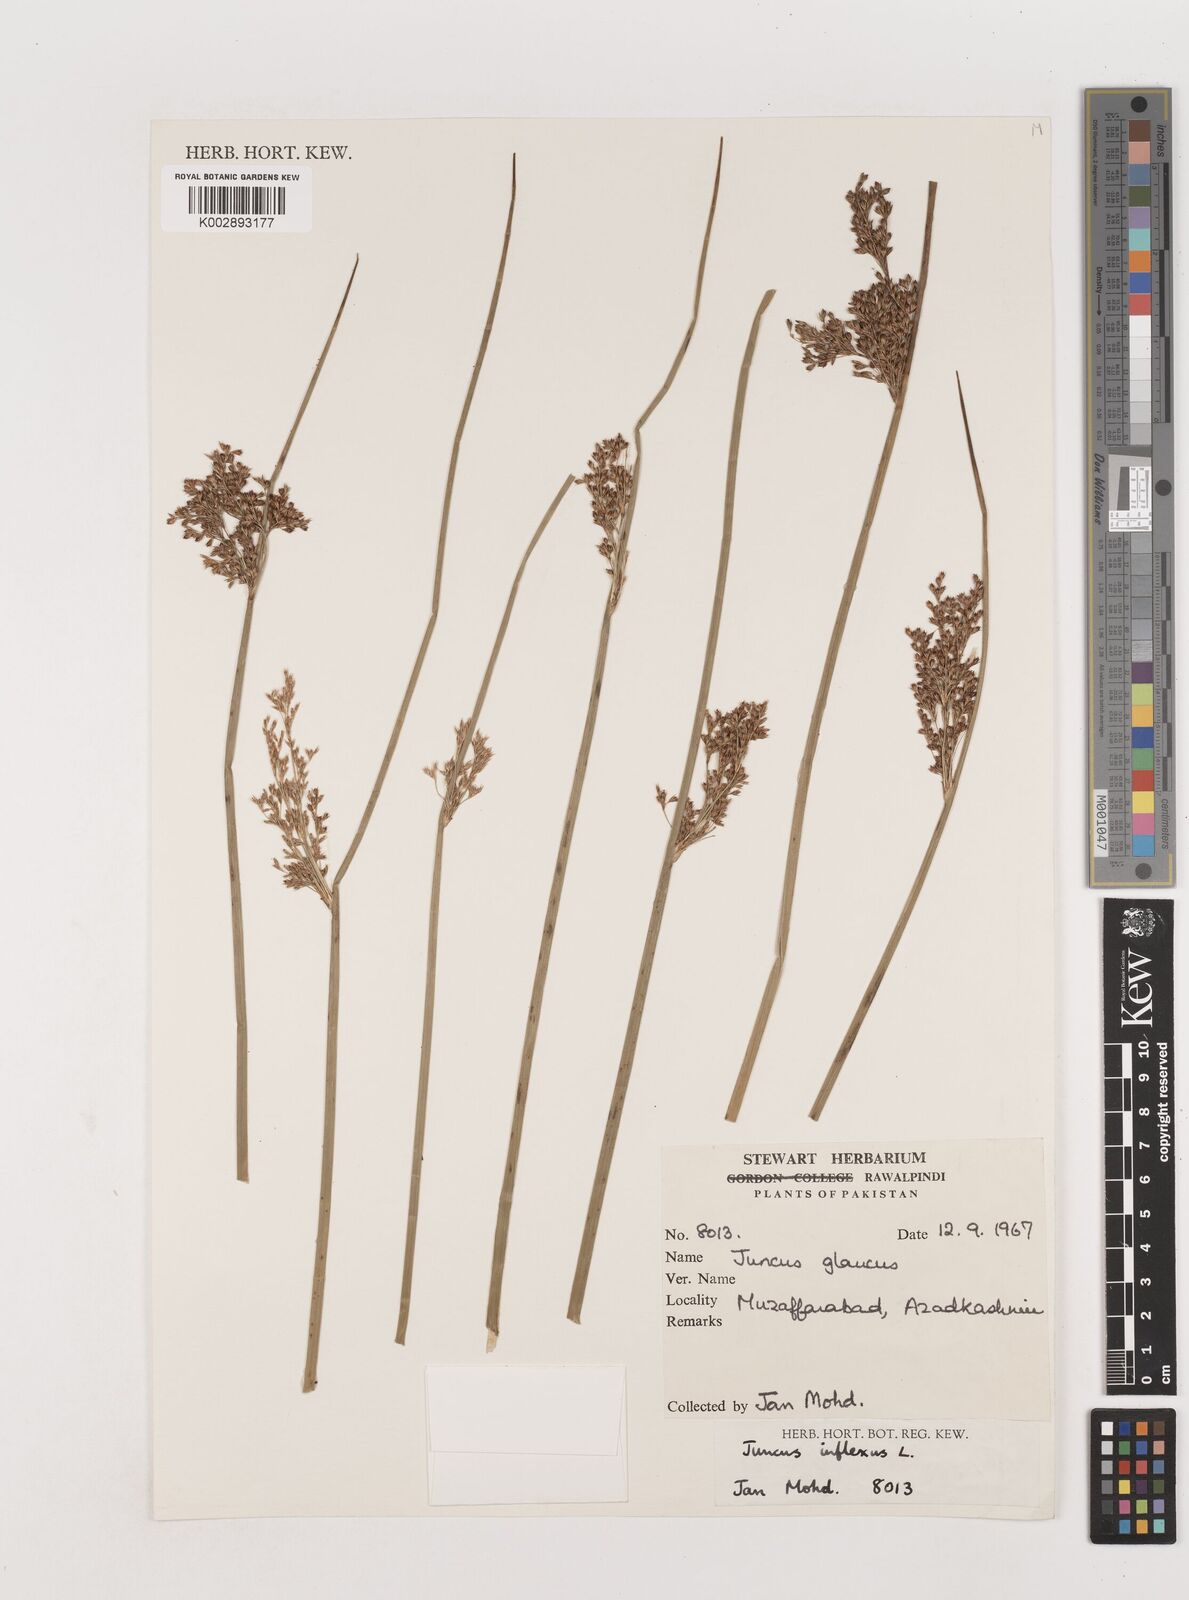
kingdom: Plantae
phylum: Tracheophyta
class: Liliopsida
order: Poales
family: Juncaceae
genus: Juncus
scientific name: Juncus inflexus
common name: Hard rush
